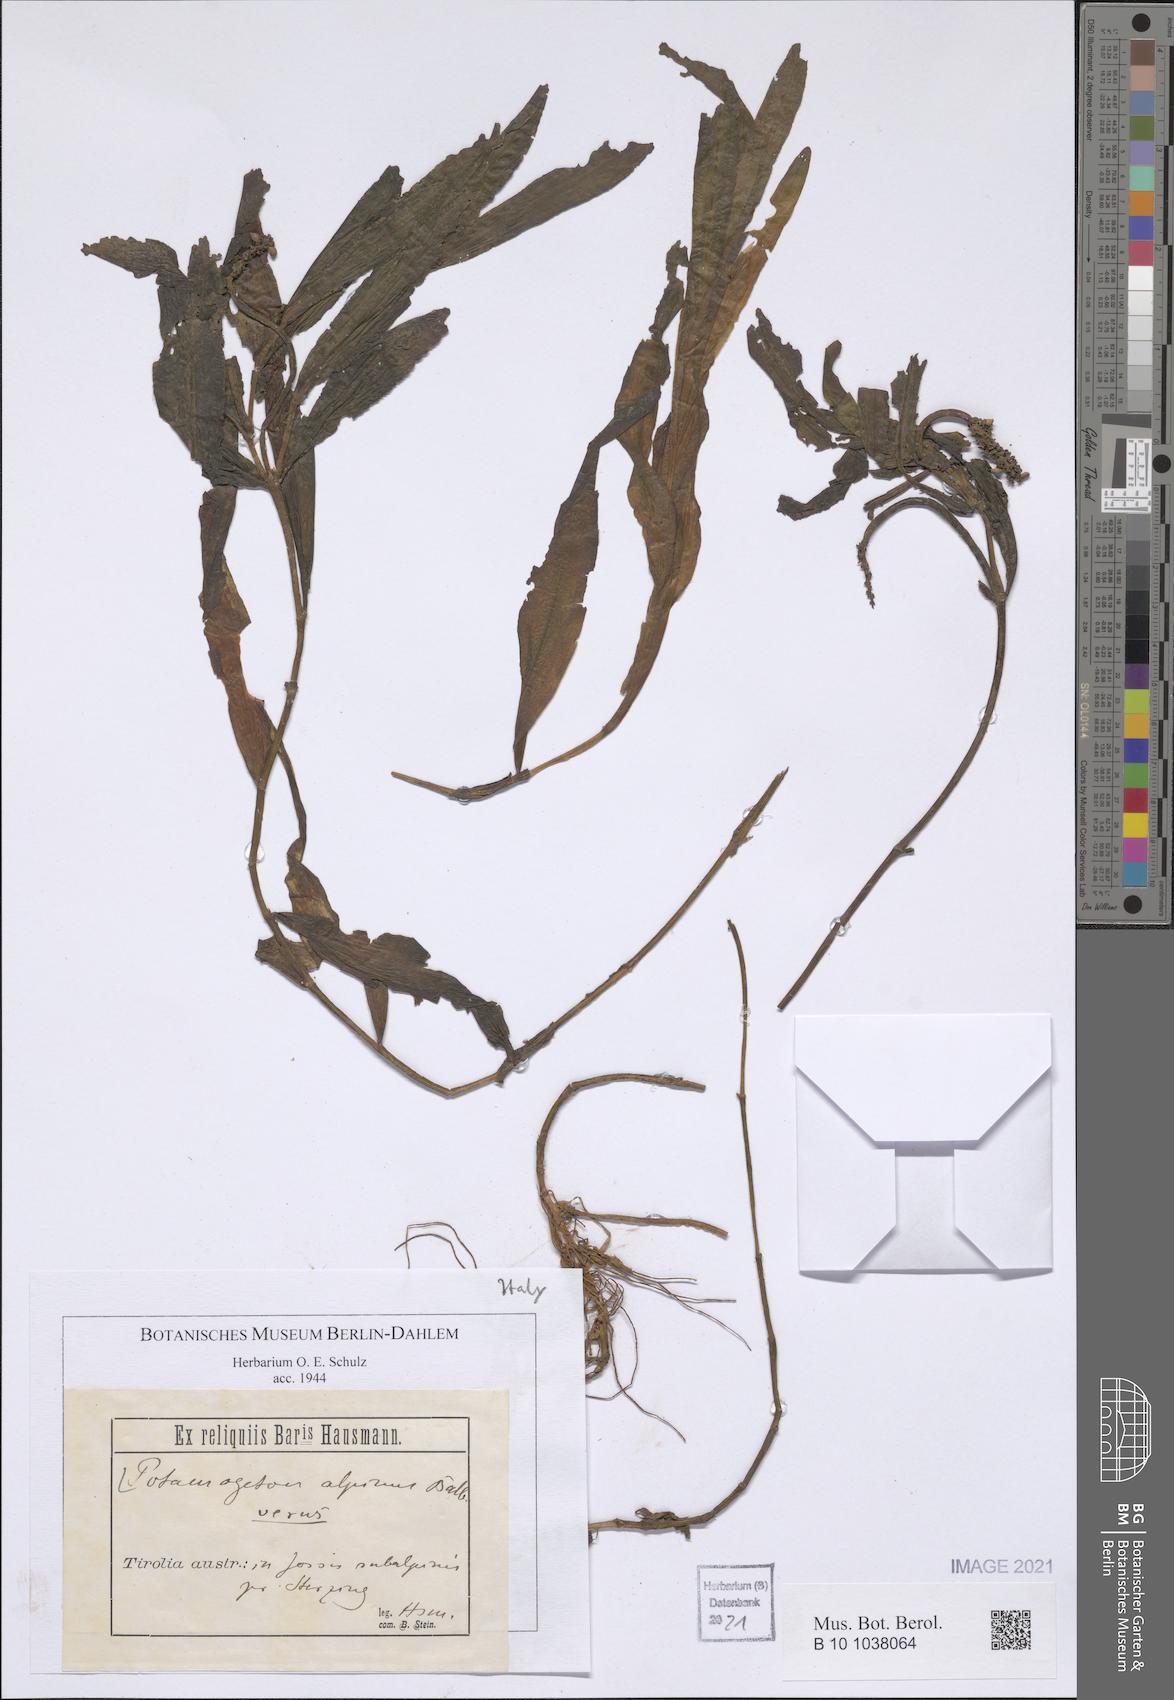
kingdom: Plantae
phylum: Tracheophyta
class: Liliopsida
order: Alismatales
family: Potamogetonaceae
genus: Potamogeton
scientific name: Potamogeton alpinus
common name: Red pondweed
